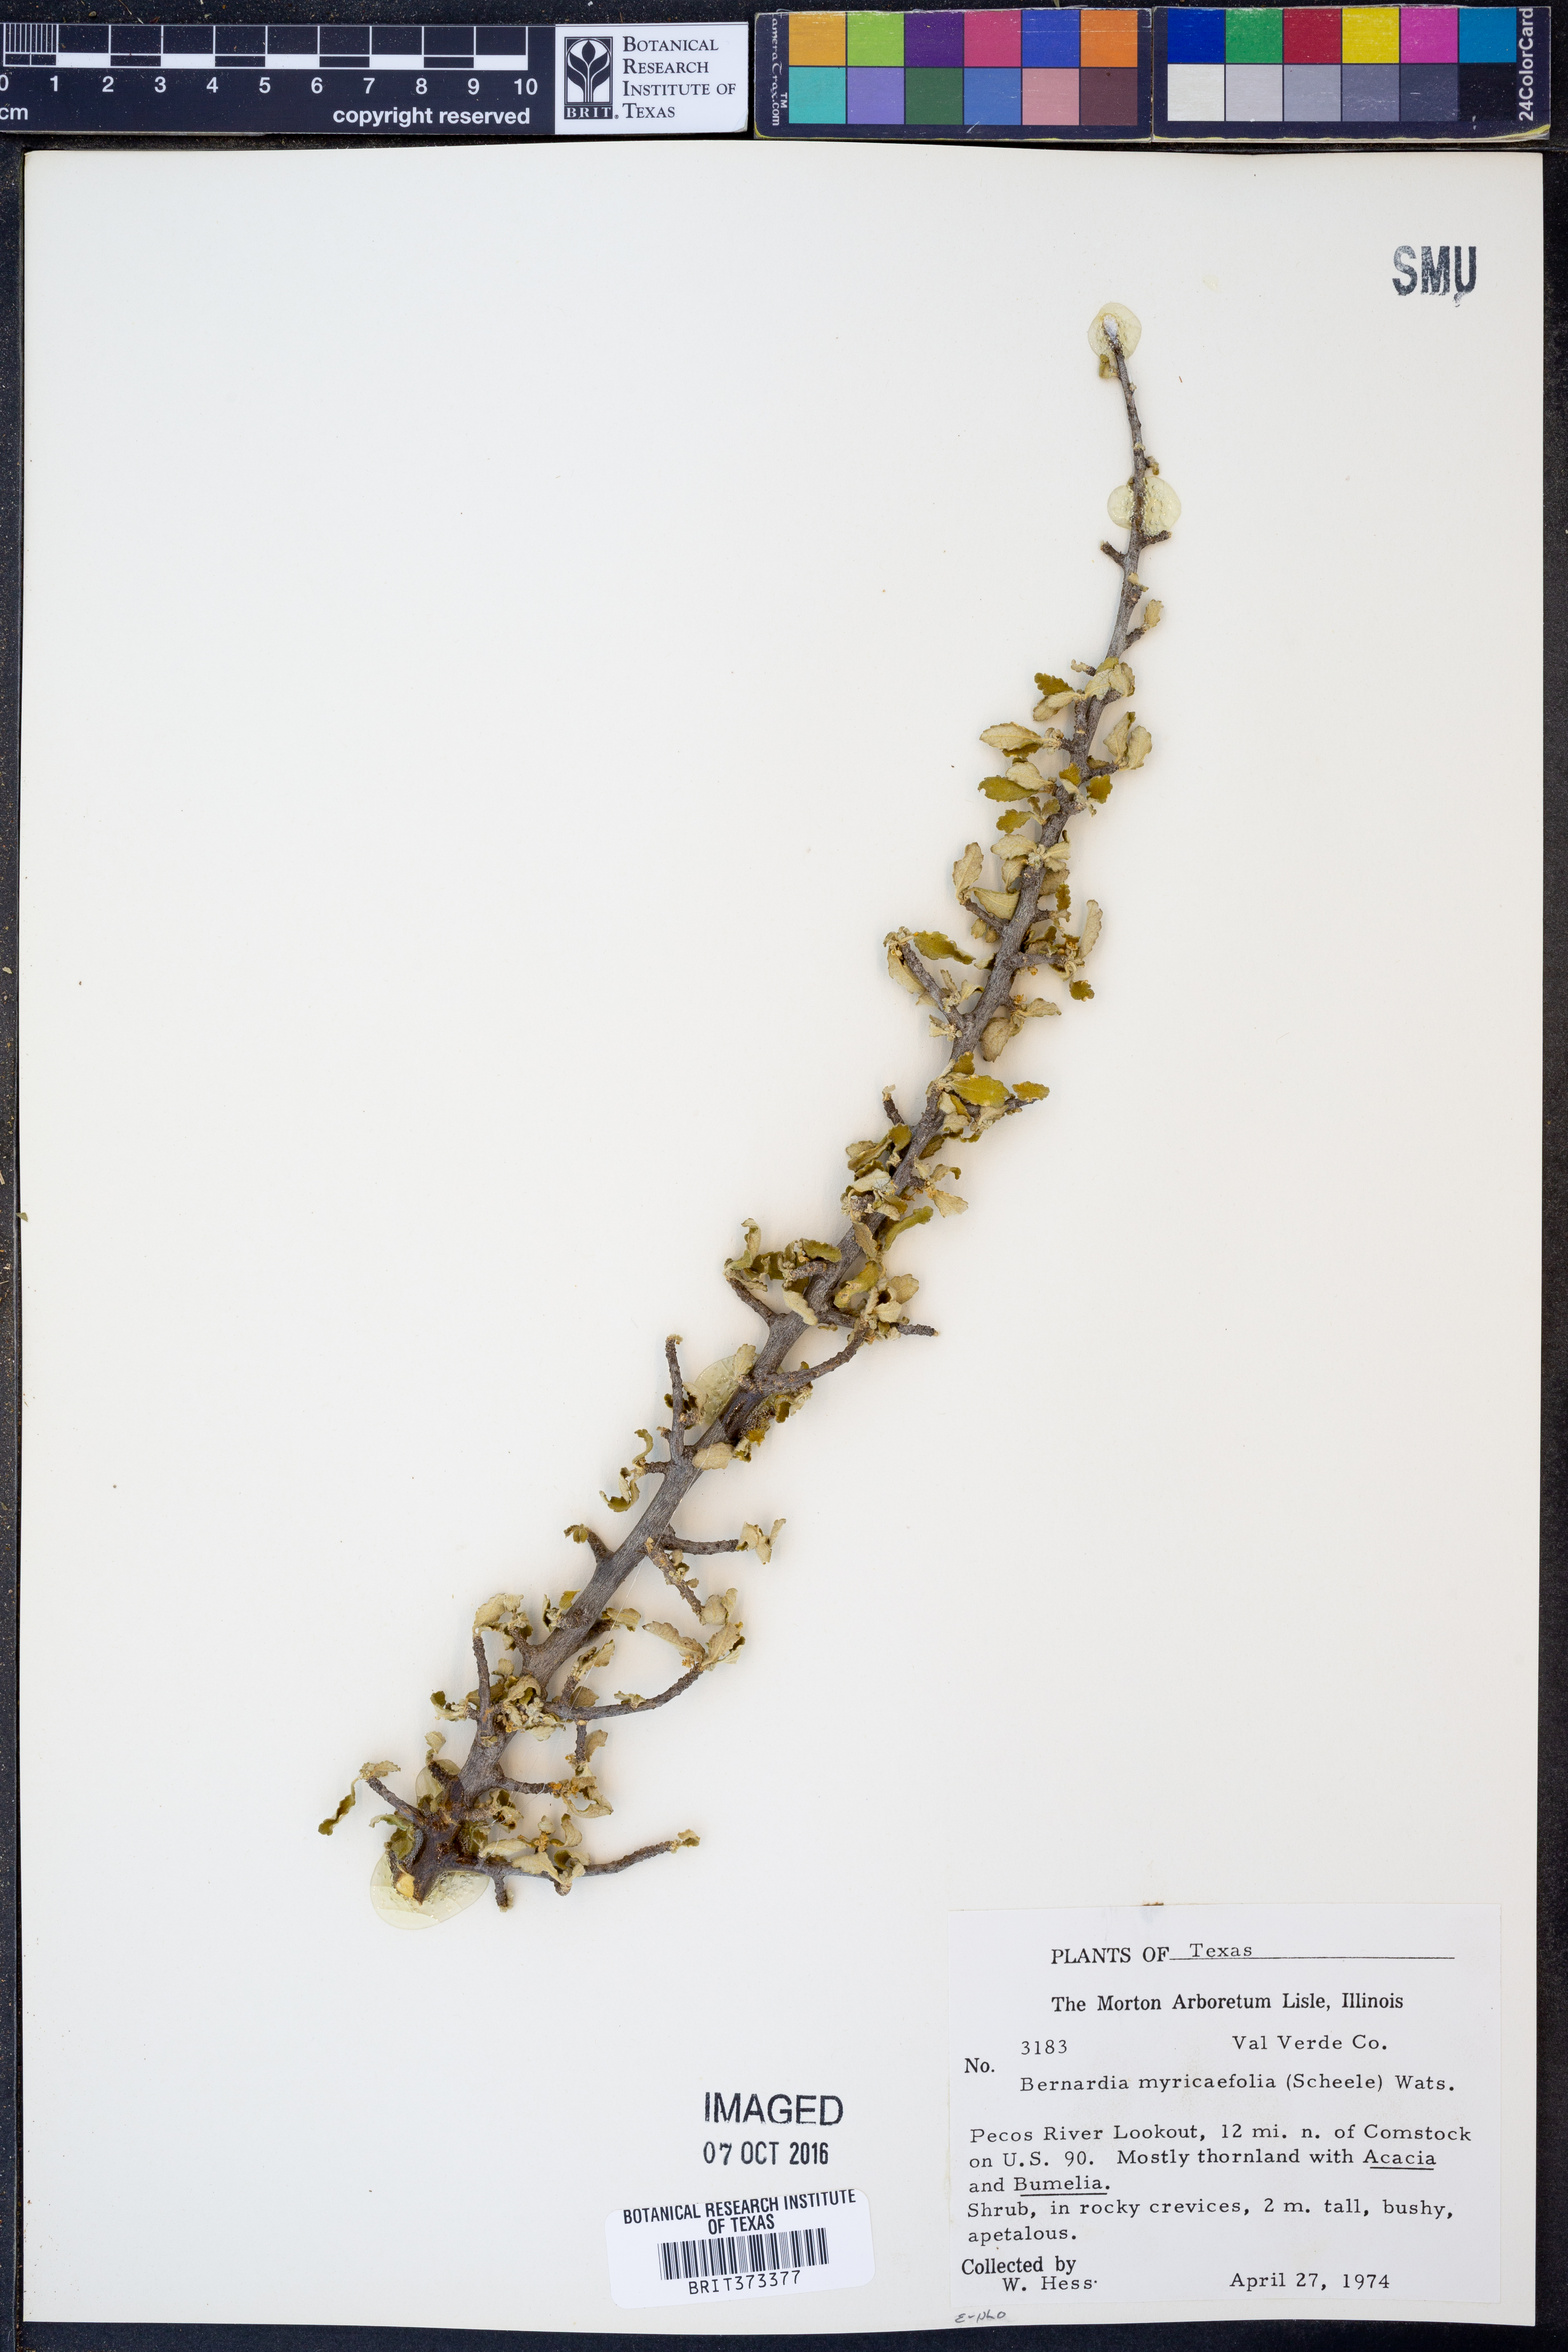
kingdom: Plantae
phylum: Tracheophyta
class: Magnoliopsida
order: Malpighiales
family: Euphorbiaceae
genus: Bernardia
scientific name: Bernardia myricifolia
